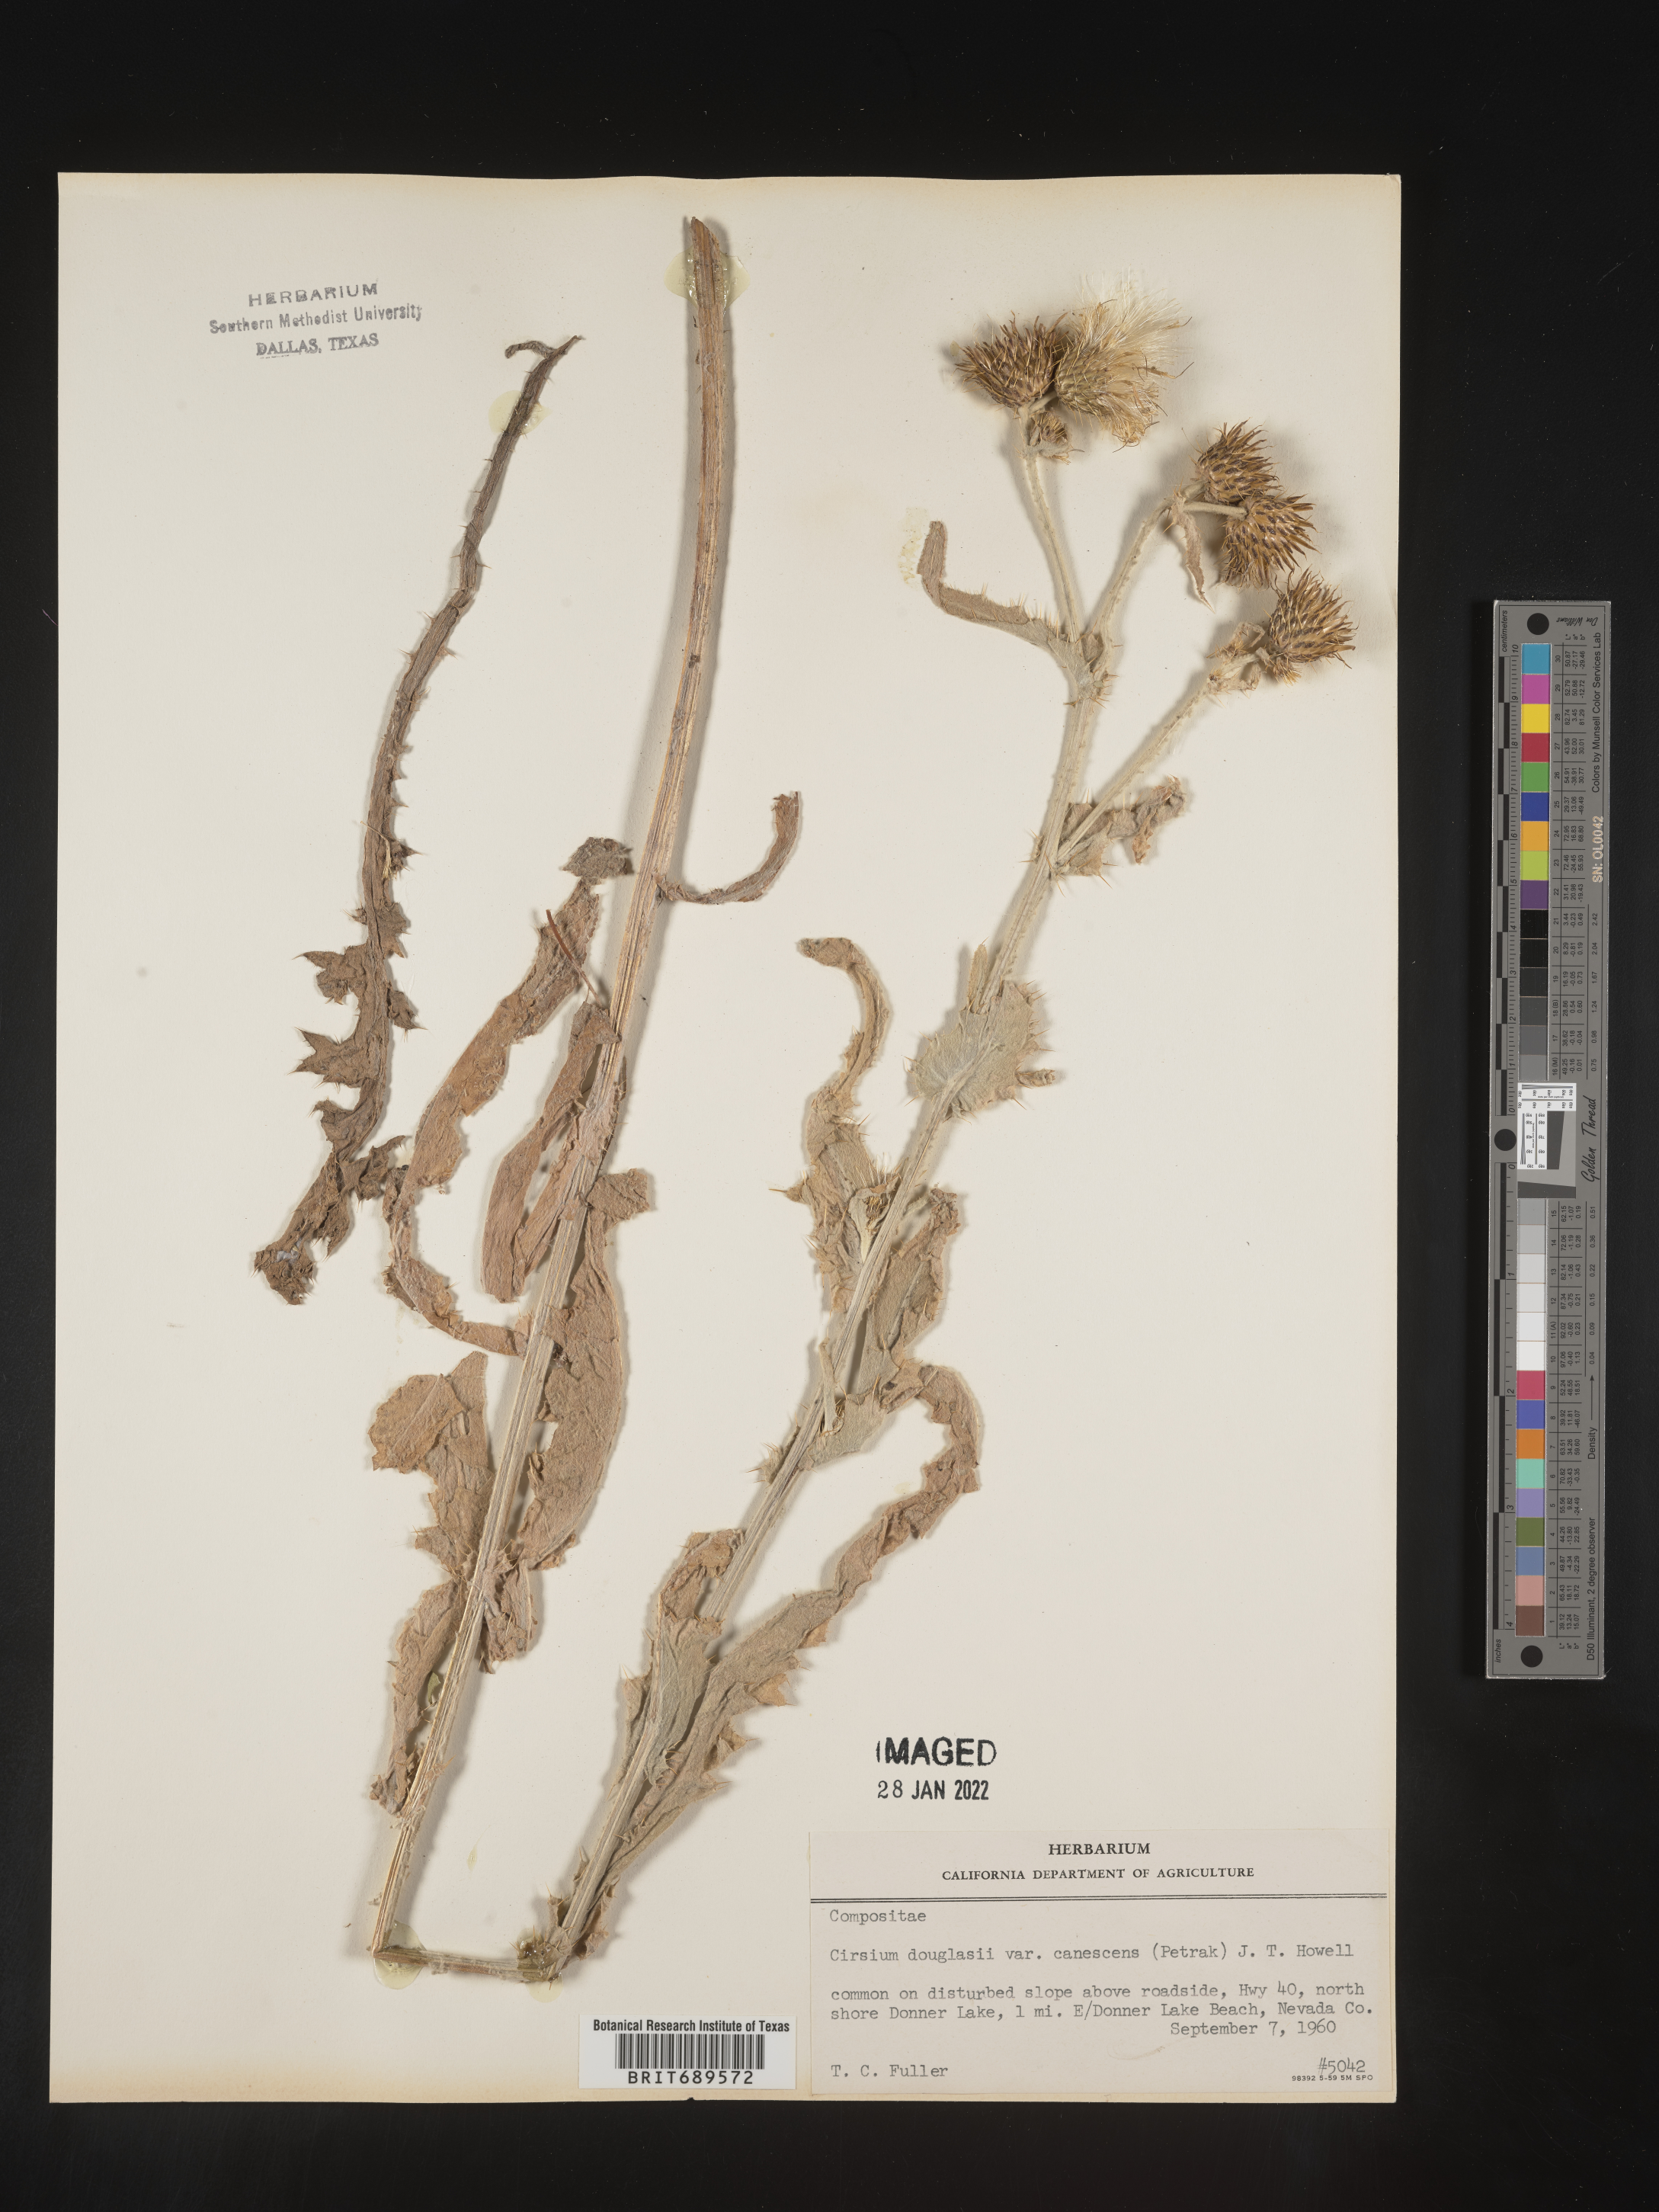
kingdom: Plantae
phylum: Tracheophyta
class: Magnoliopsida
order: Asterales
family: Asteraceae
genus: Cirsium
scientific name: Cirsium
